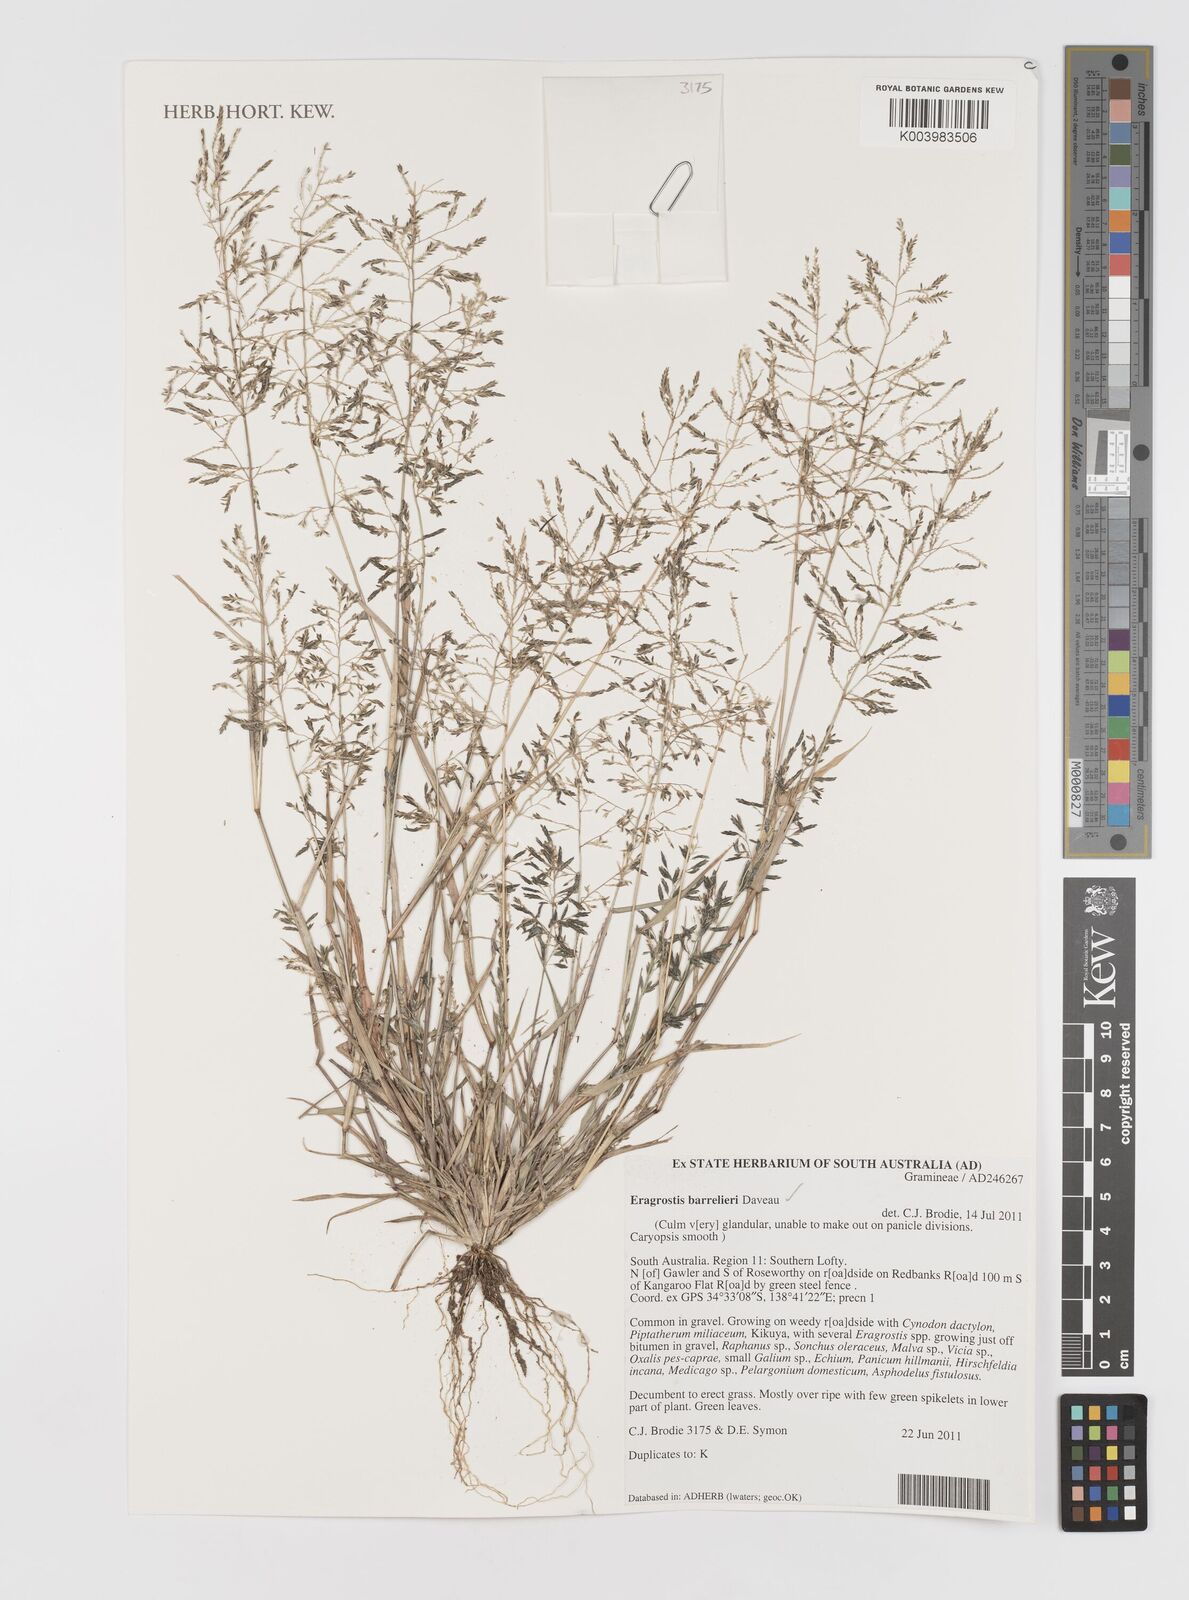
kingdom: Plantae
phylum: Tracheophyta
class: Liliopsida
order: Poales
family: Poaceae
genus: Eragrostis
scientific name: Eragrostis barrelieri
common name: Mediterranean lovegrass
